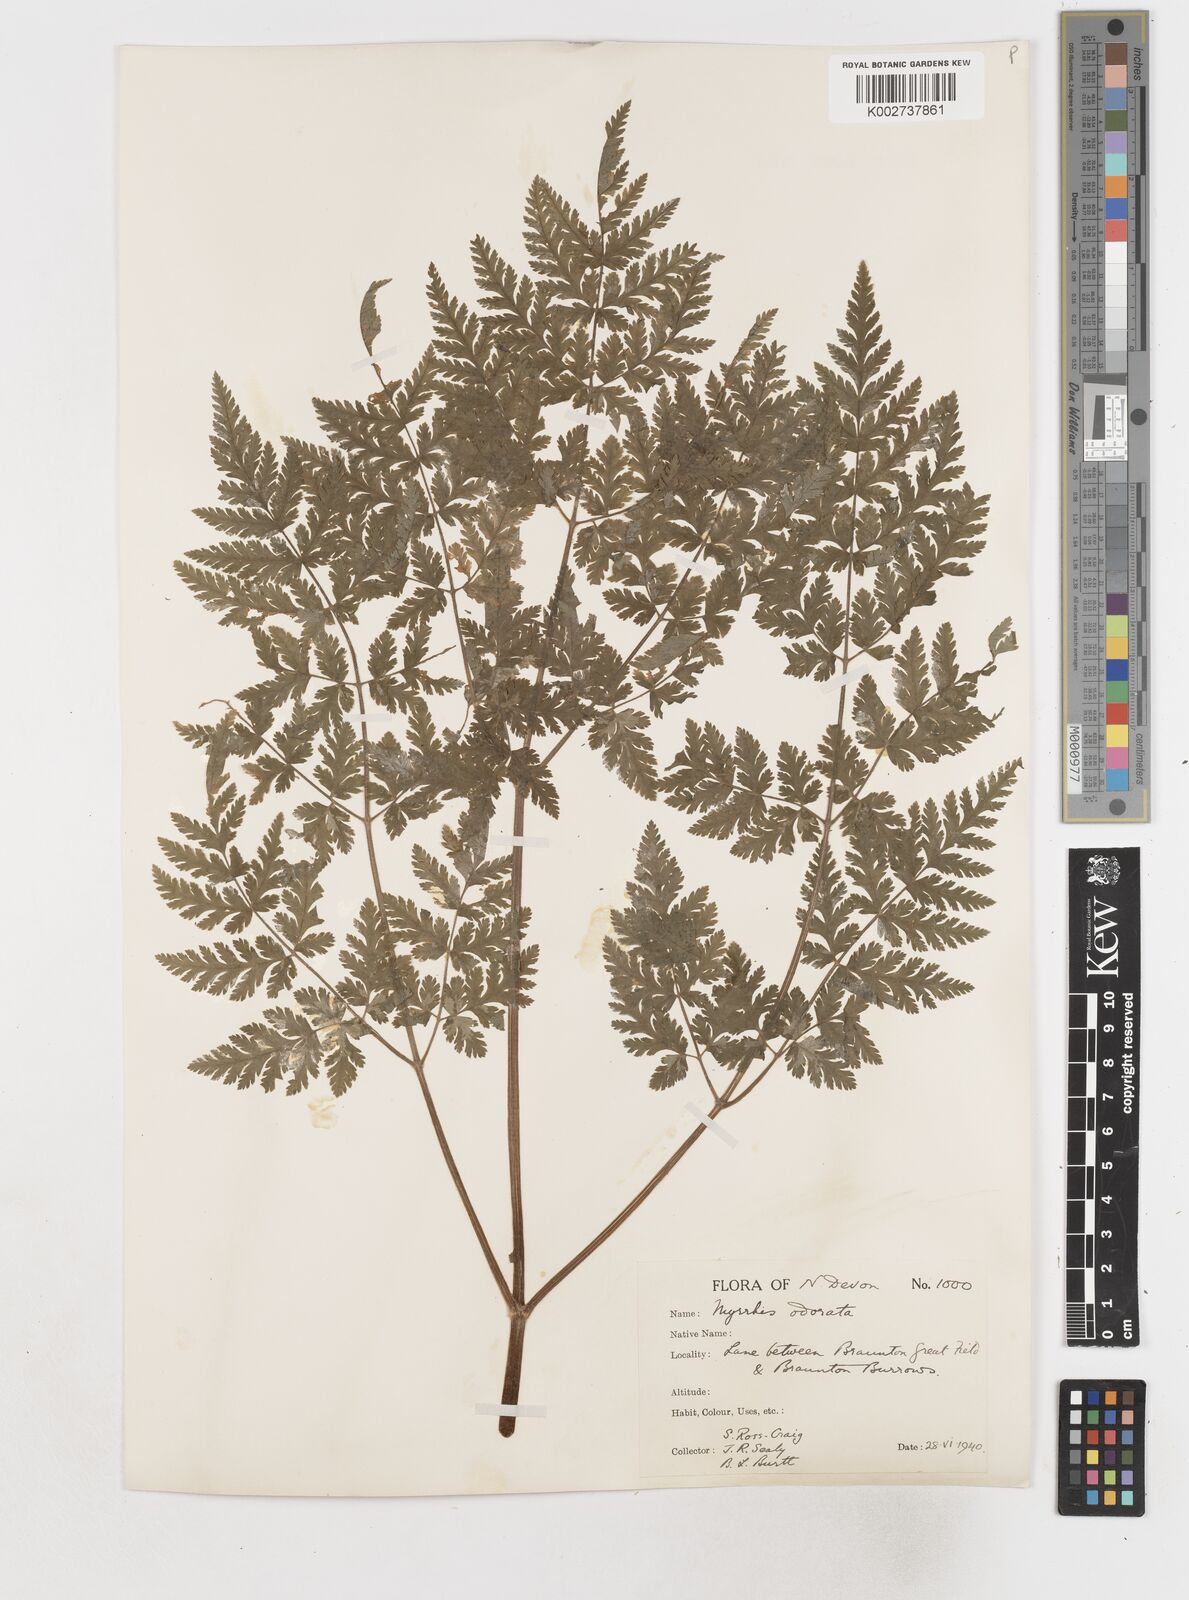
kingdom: Plantae
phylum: Tracheophyta
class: Magnoliopsida
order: Apiales
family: Apiaceae
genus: Myrrhis
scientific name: Myrrhis odorata
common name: Sweet cicely
